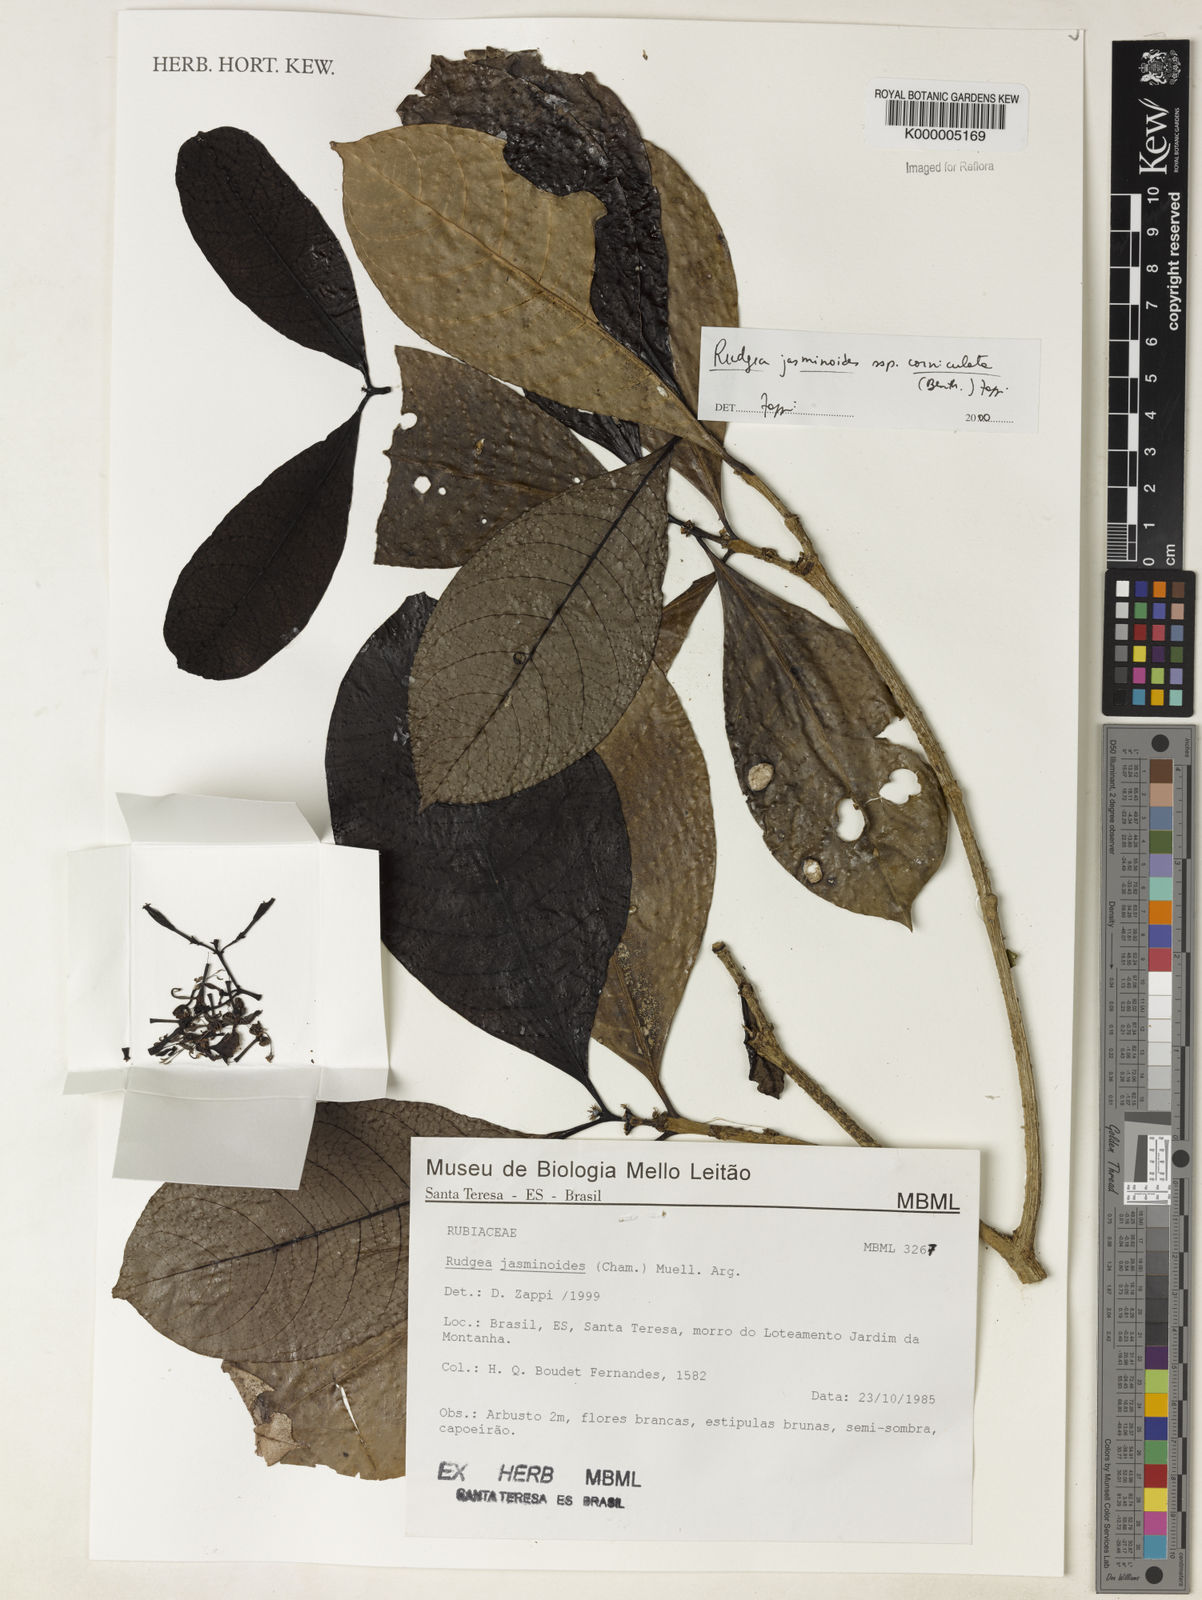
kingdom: Plantae
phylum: Tracheophyta
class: Magnoliopsida
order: Gentianales
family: Rubiaceae
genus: Rudgea
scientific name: Rudgea jasminoides
